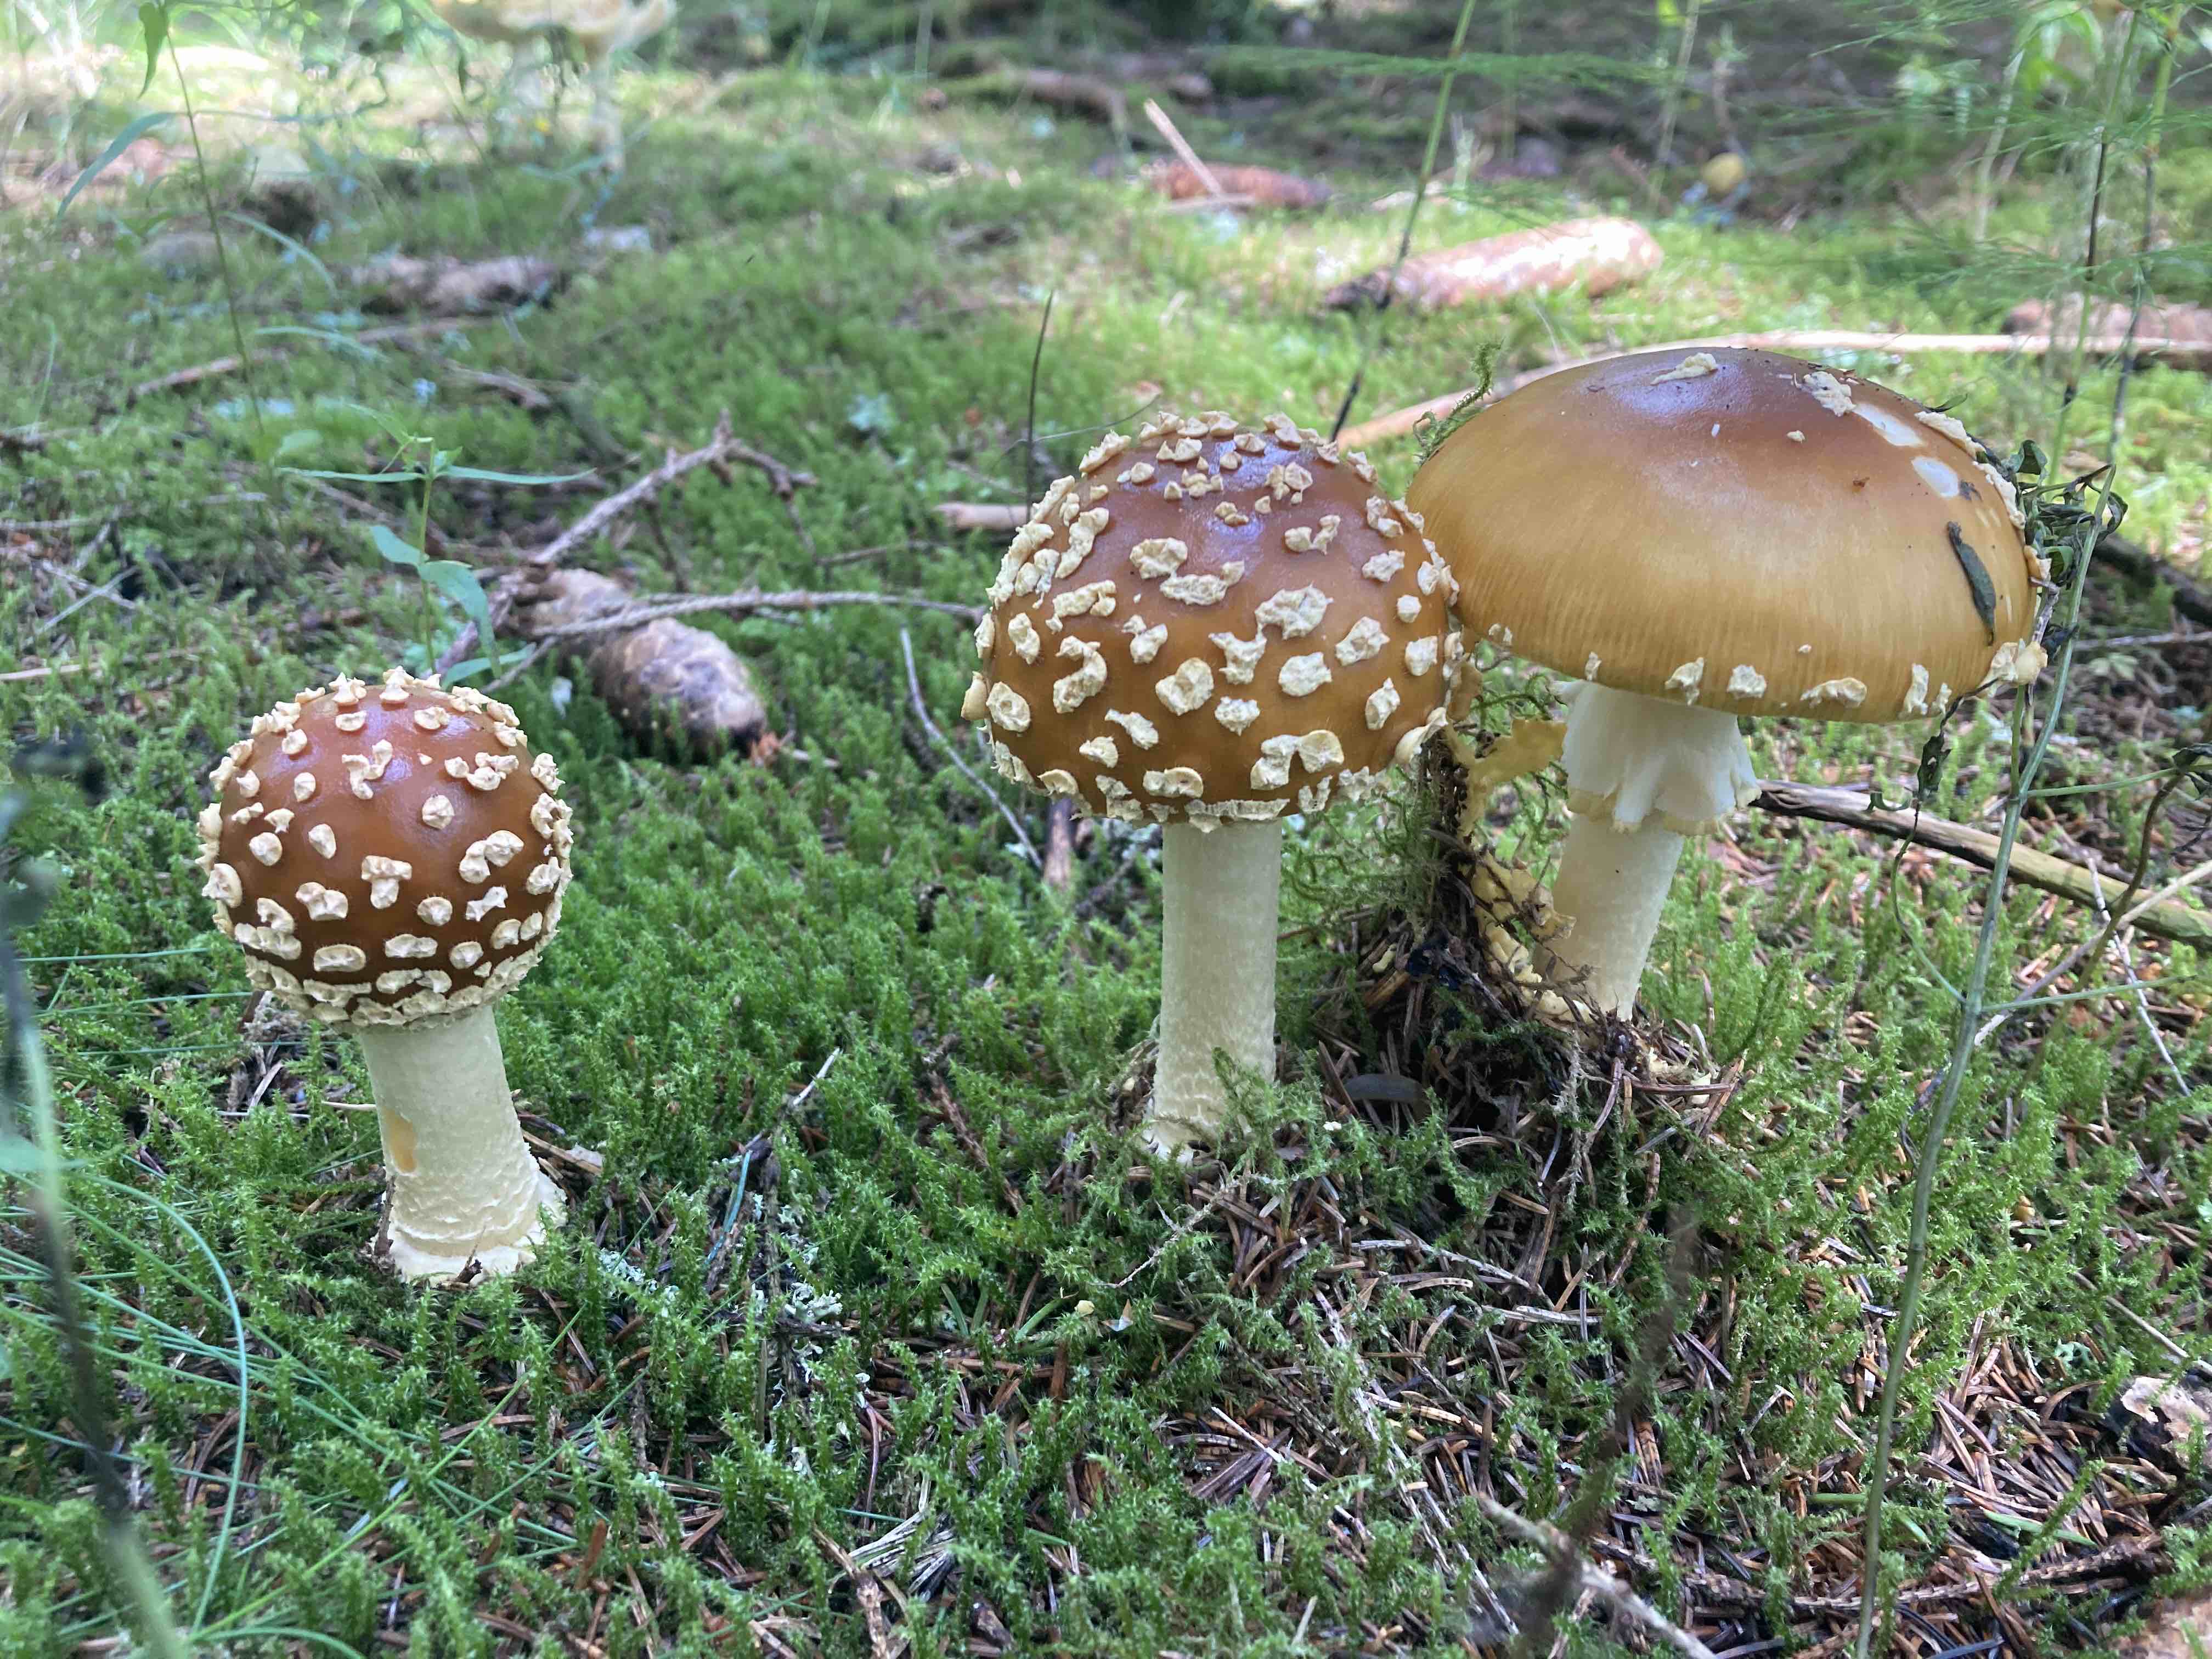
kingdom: Fungi
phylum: Basidiomycota
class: Agaricomycetes
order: Agaricales
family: Amanitaceae
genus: Amanita
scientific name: Amanita pantherina
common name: panter-fluesvamp
